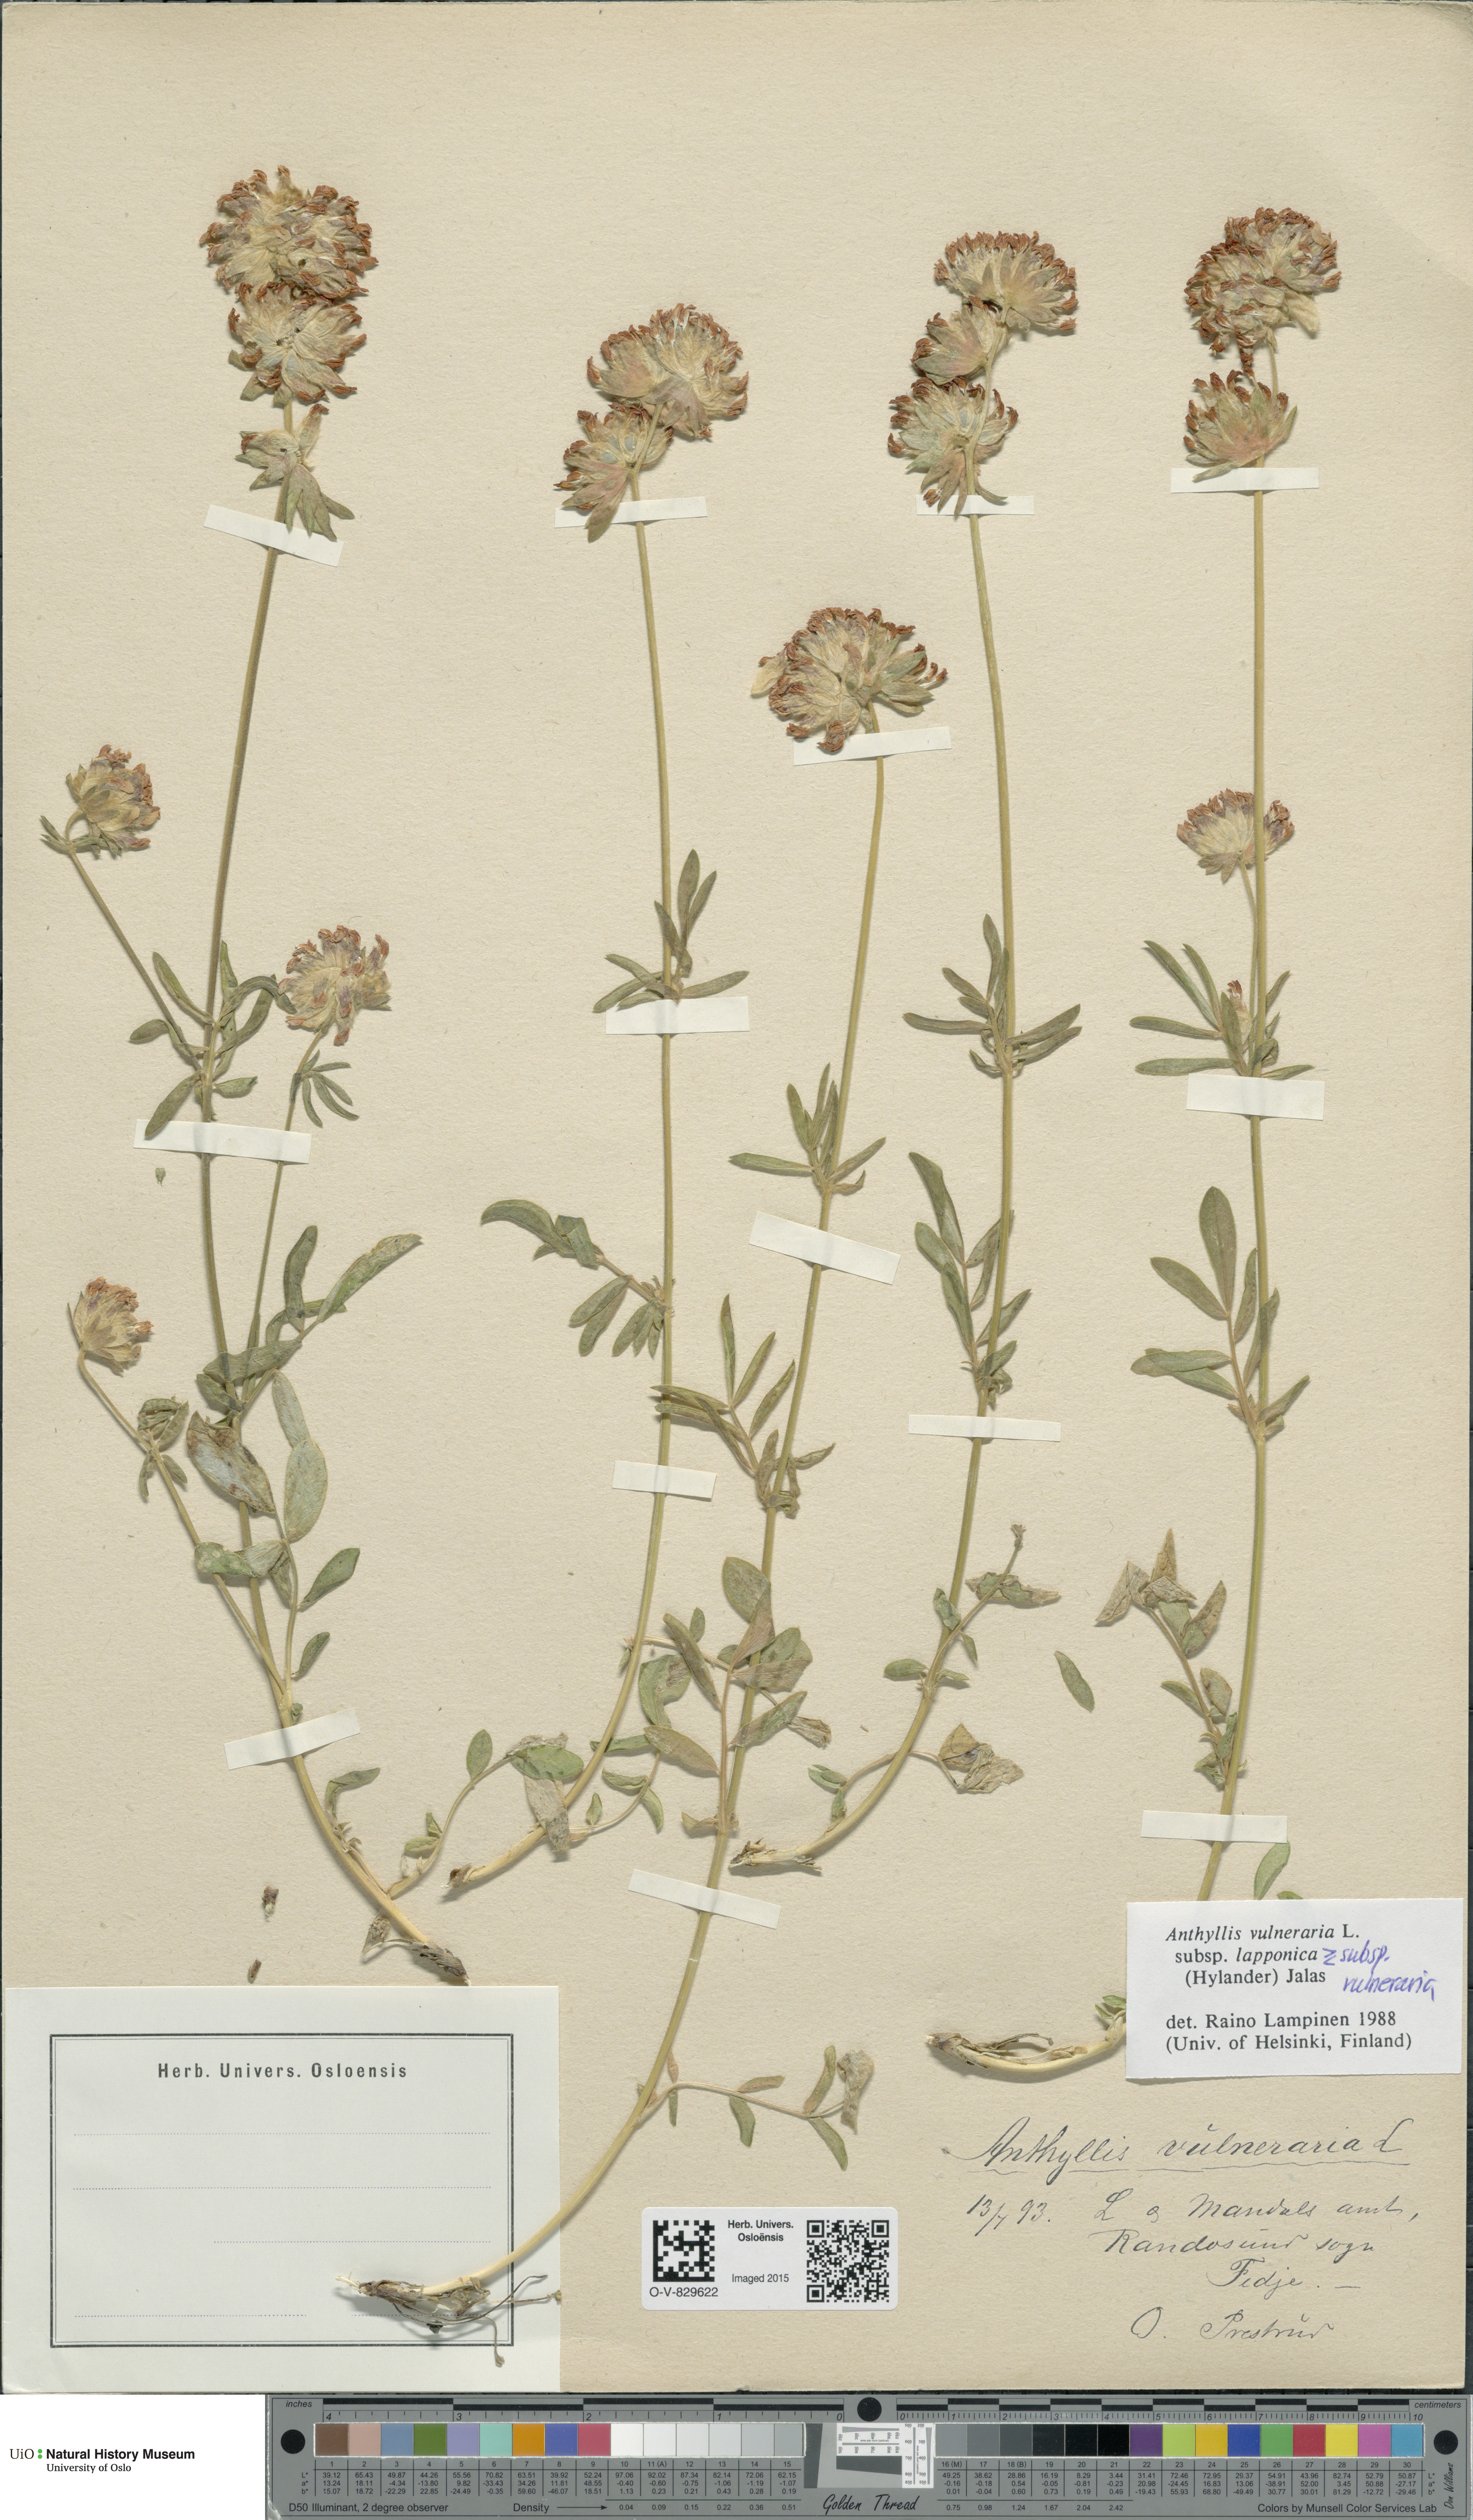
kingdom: Plantae
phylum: Tracheophyta
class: Magnoliopsida
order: Fabales
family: Fabaceae
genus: Anthyllis
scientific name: Anthyllis
